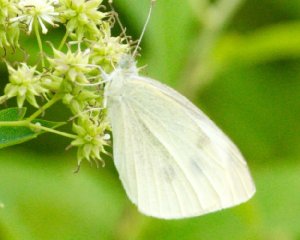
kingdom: Animalia
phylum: Arthropoda
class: Insecta
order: Lepidoptera
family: Pieridae
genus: Pieris
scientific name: Pieris rapae
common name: Cabbage White
